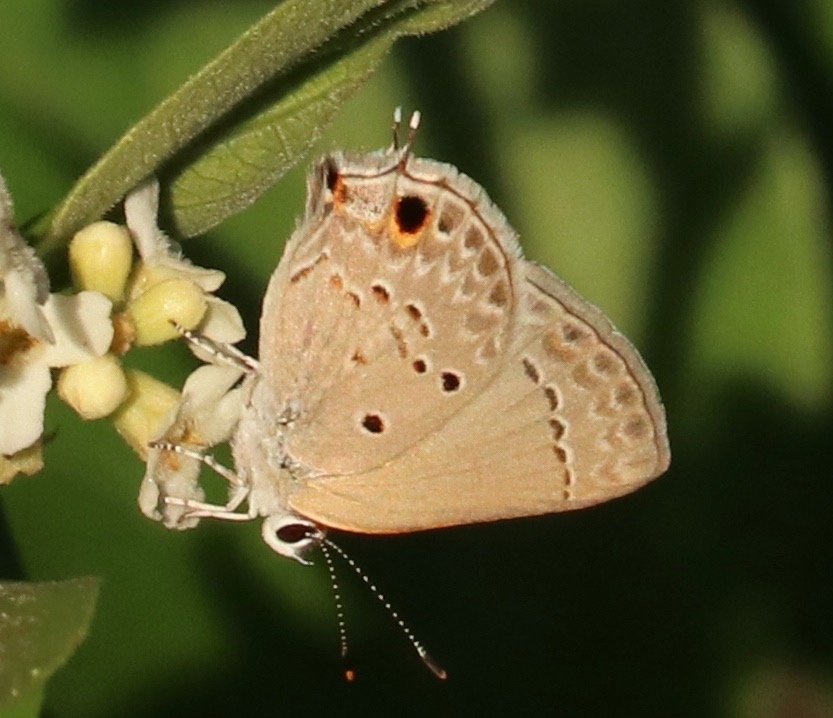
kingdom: Animalia
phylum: Arthropoda
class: Insecta
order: Lepidoptera
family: Lycaenidae
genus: Callicista
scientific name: Callicista columella
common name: Mallow Scrub-Hairstreak
